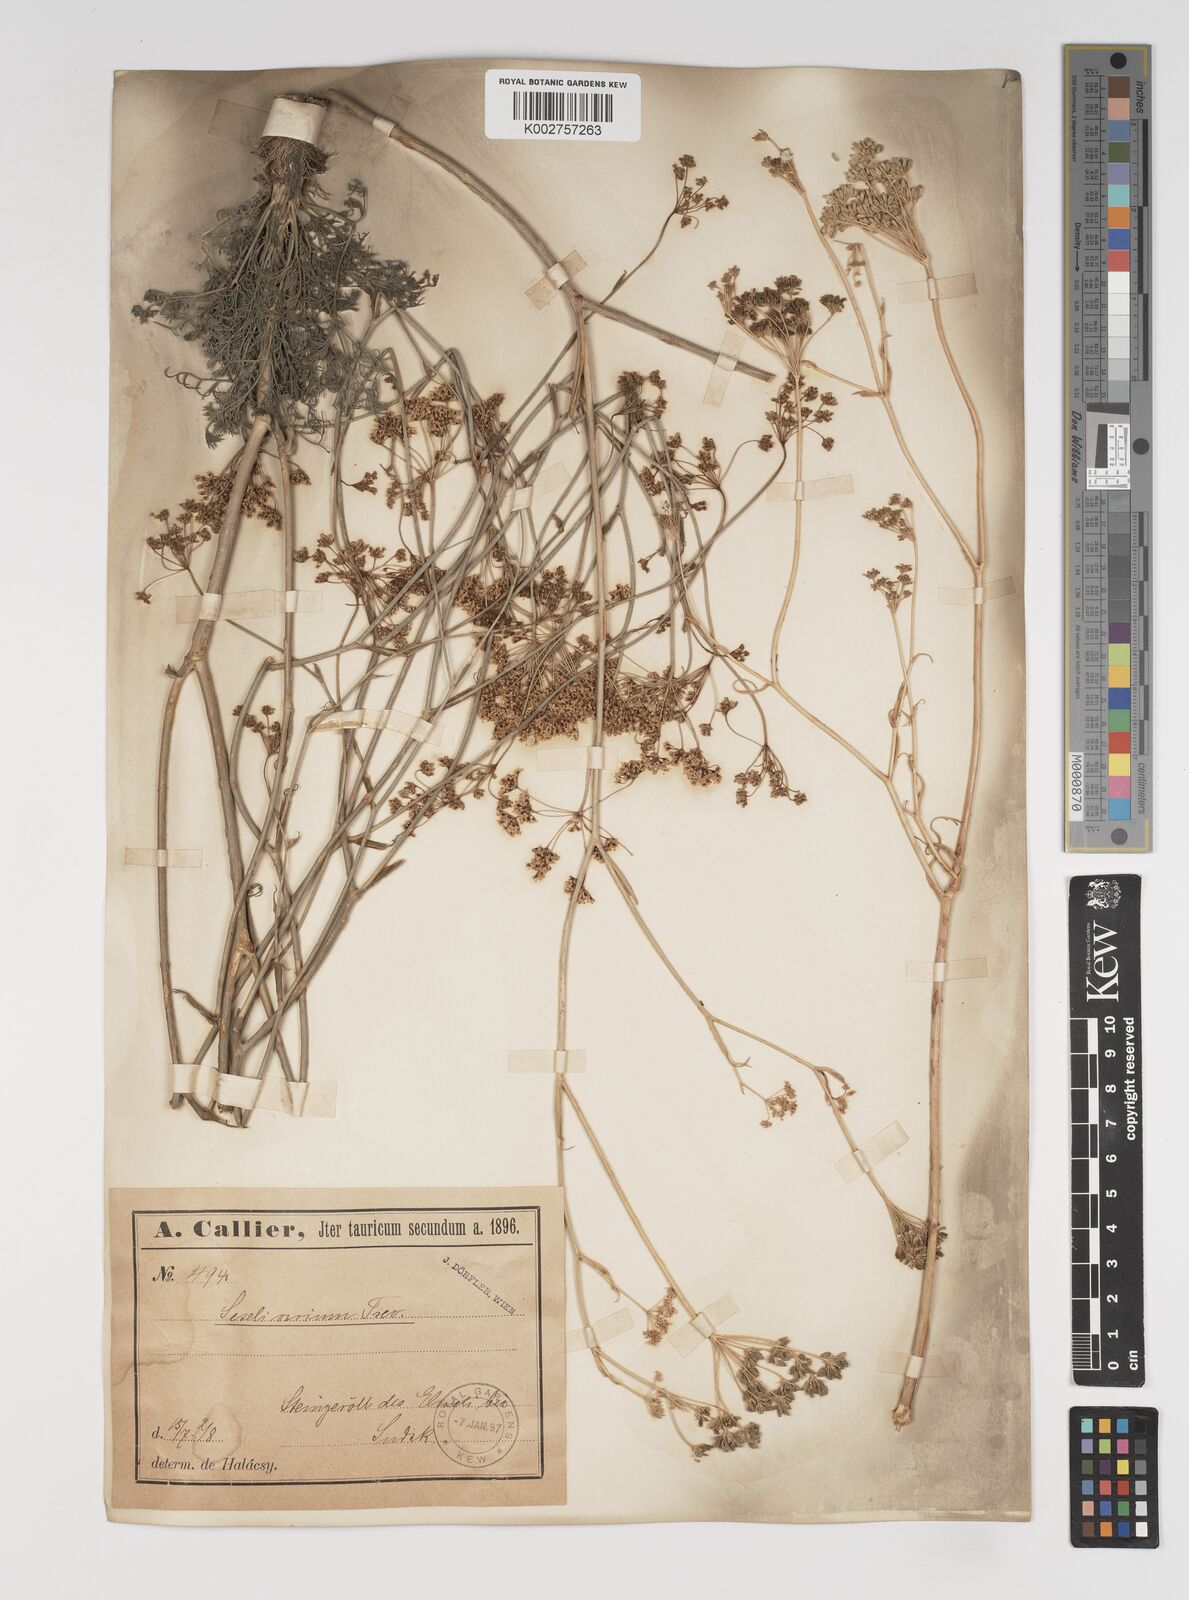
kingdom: Plantae
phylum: Tracheophyta
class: Magnoliopsida
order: Apiales
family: Apiaceae
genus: Seseli
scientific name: Seseli pallasii
